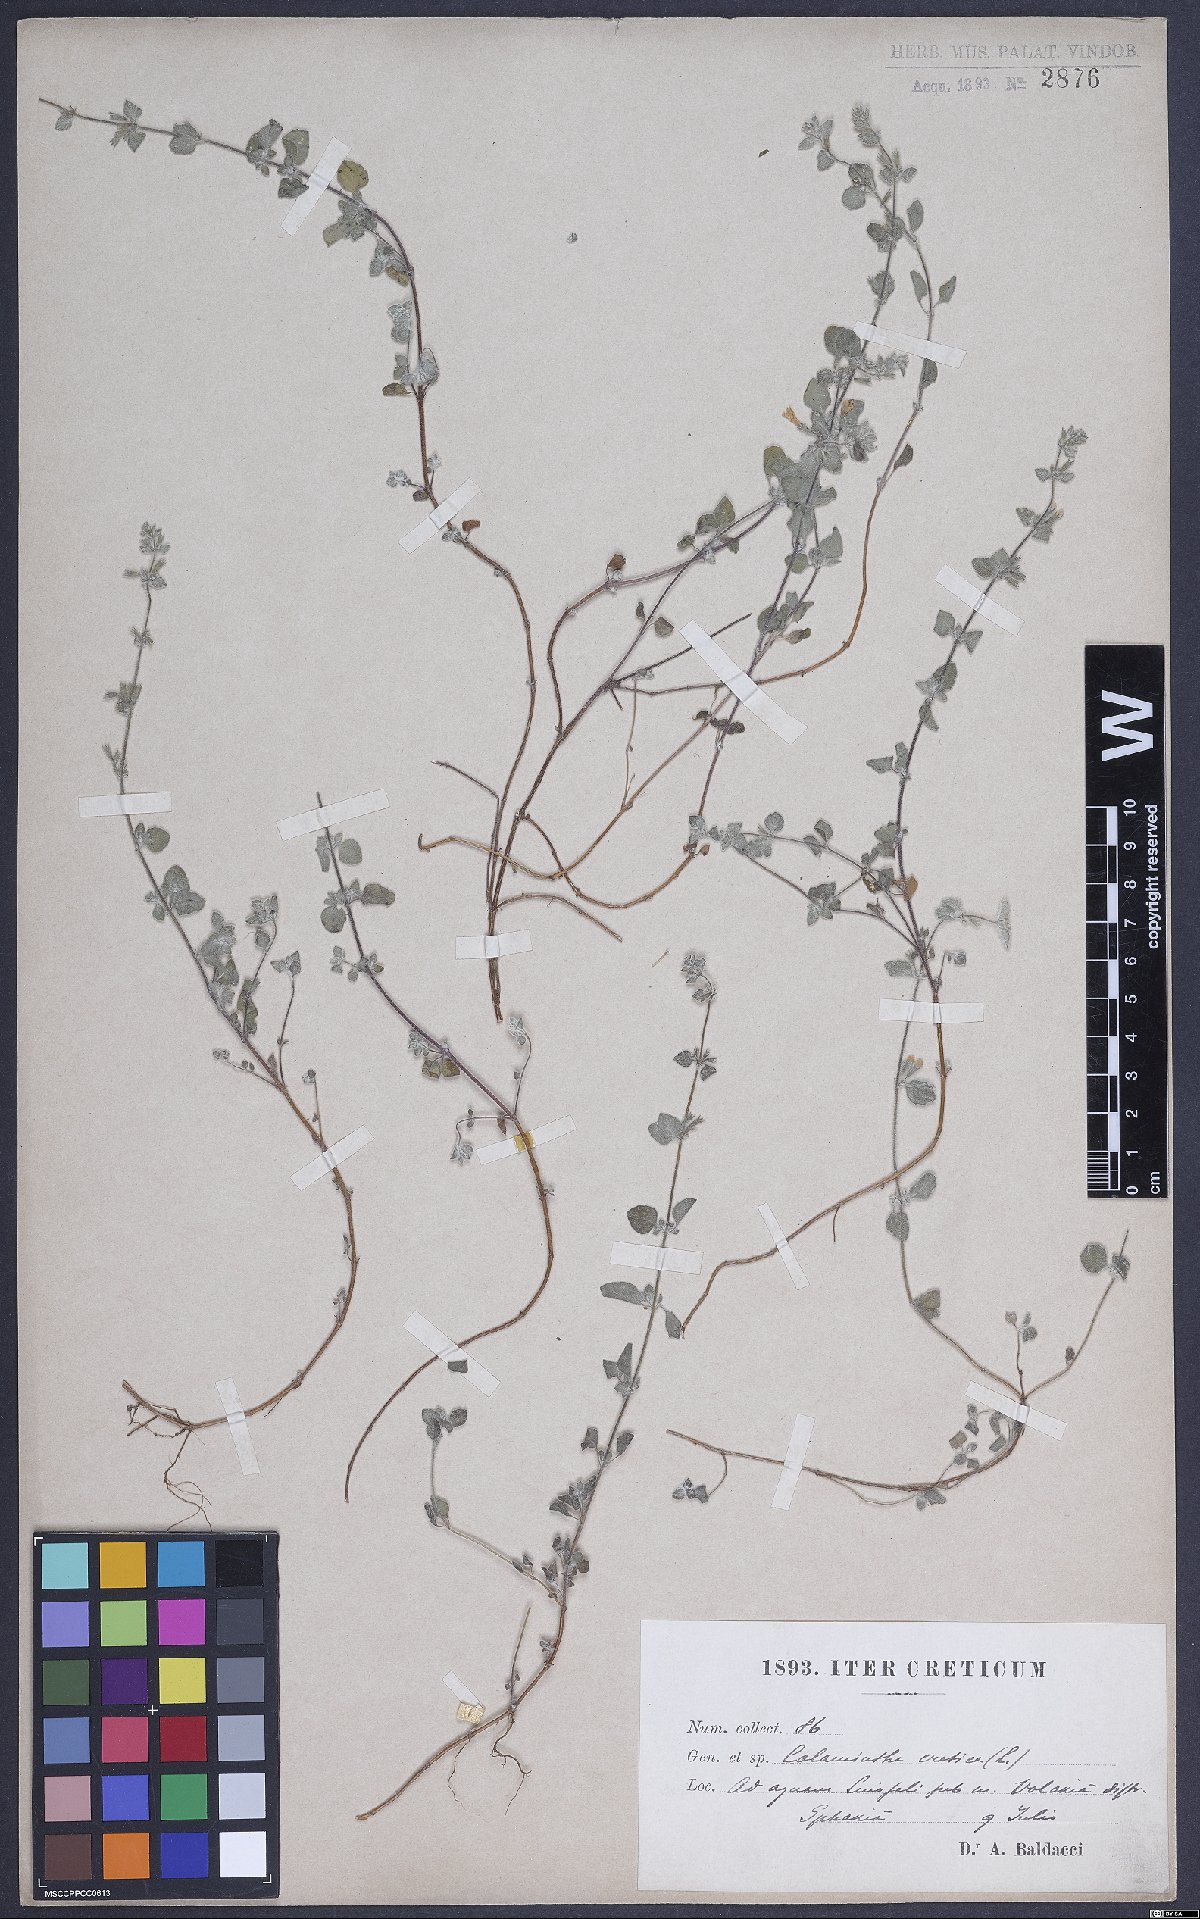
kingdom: Plantae
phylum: Tracheophyta
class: Magnoliopsida
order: Lamiales
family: Lamiaceae
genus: Clinopodium
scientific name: Clinopodium creticum
